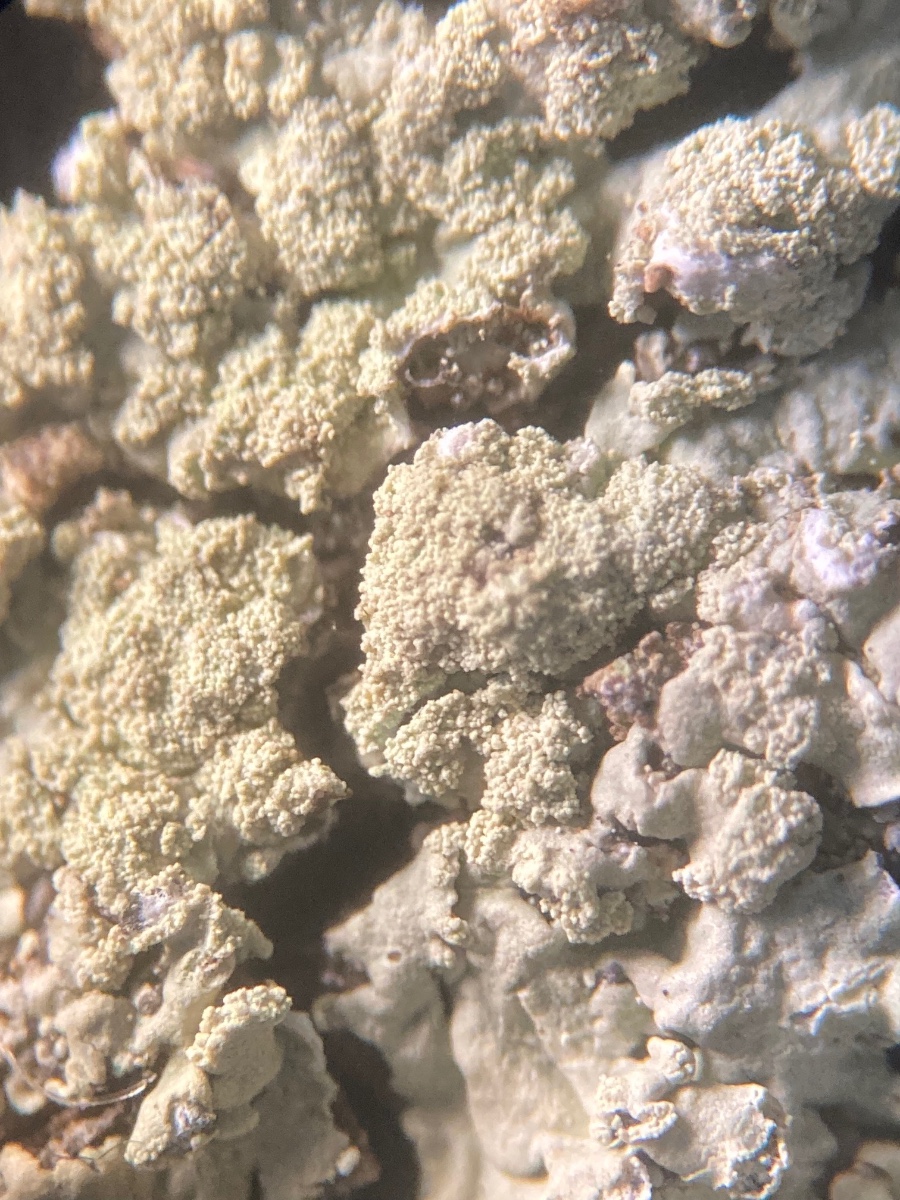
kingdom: Fungi
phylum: Ascomycota
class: Lecanoromycetes
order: Lecanorales
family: Parmeliaceae
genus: Parmeliopsis
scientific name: Parmeliopsis ambigua
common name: gul stolpelav
